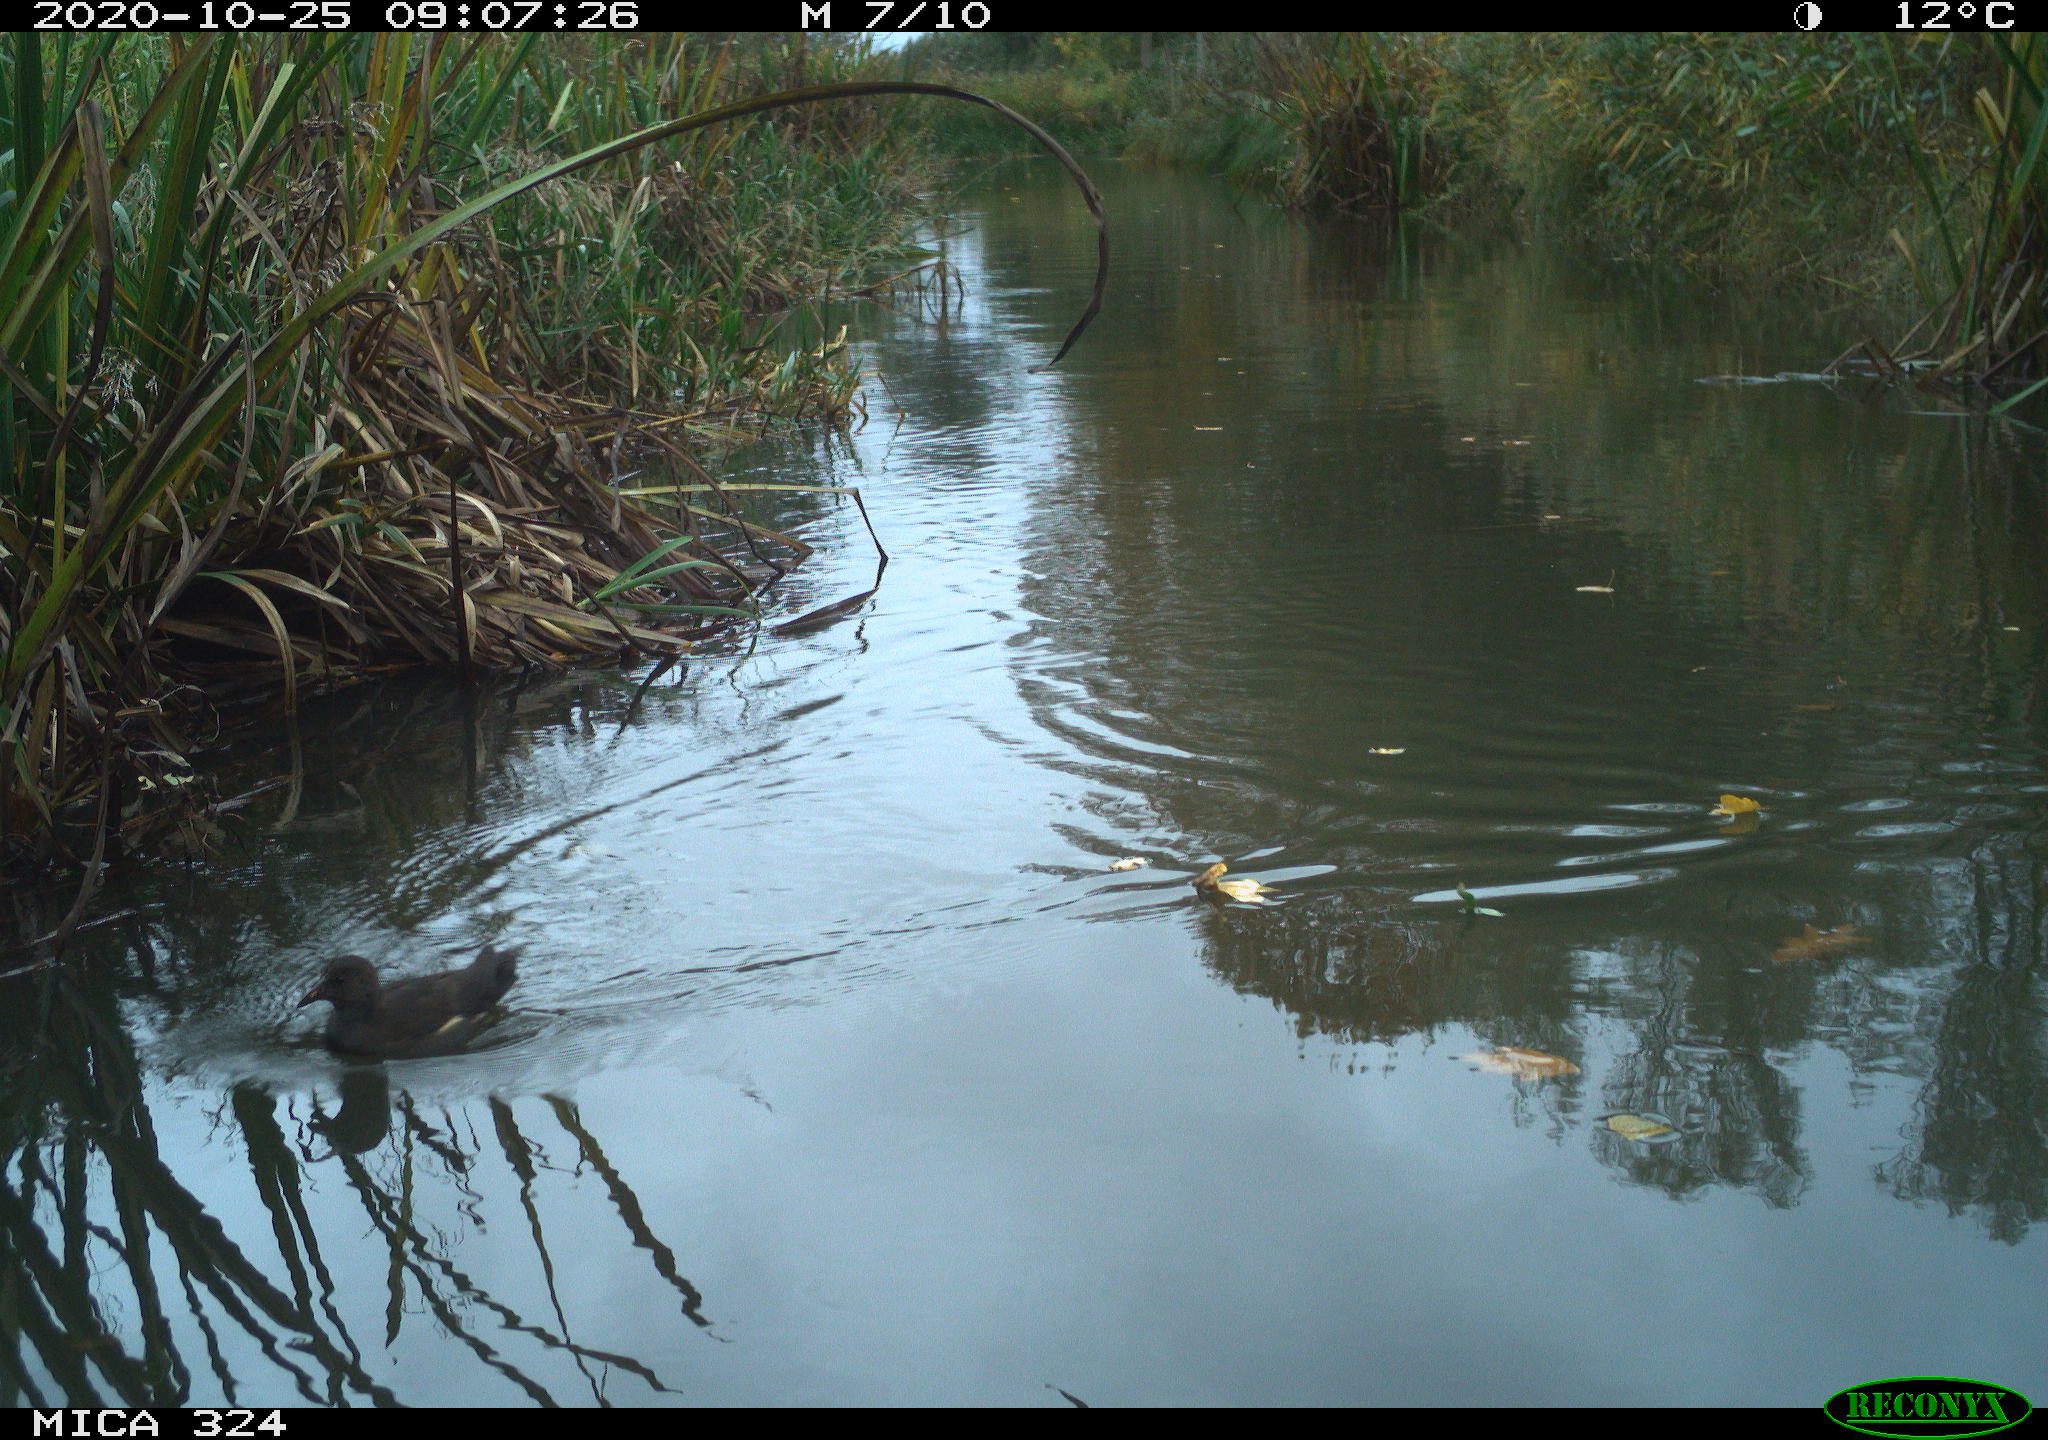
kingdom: Animalia
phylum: Chordata
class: Aves
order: Gruiformes
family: Rallidae
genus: Gallinula
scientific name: Gallinula chloropus
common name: Common moorhen
